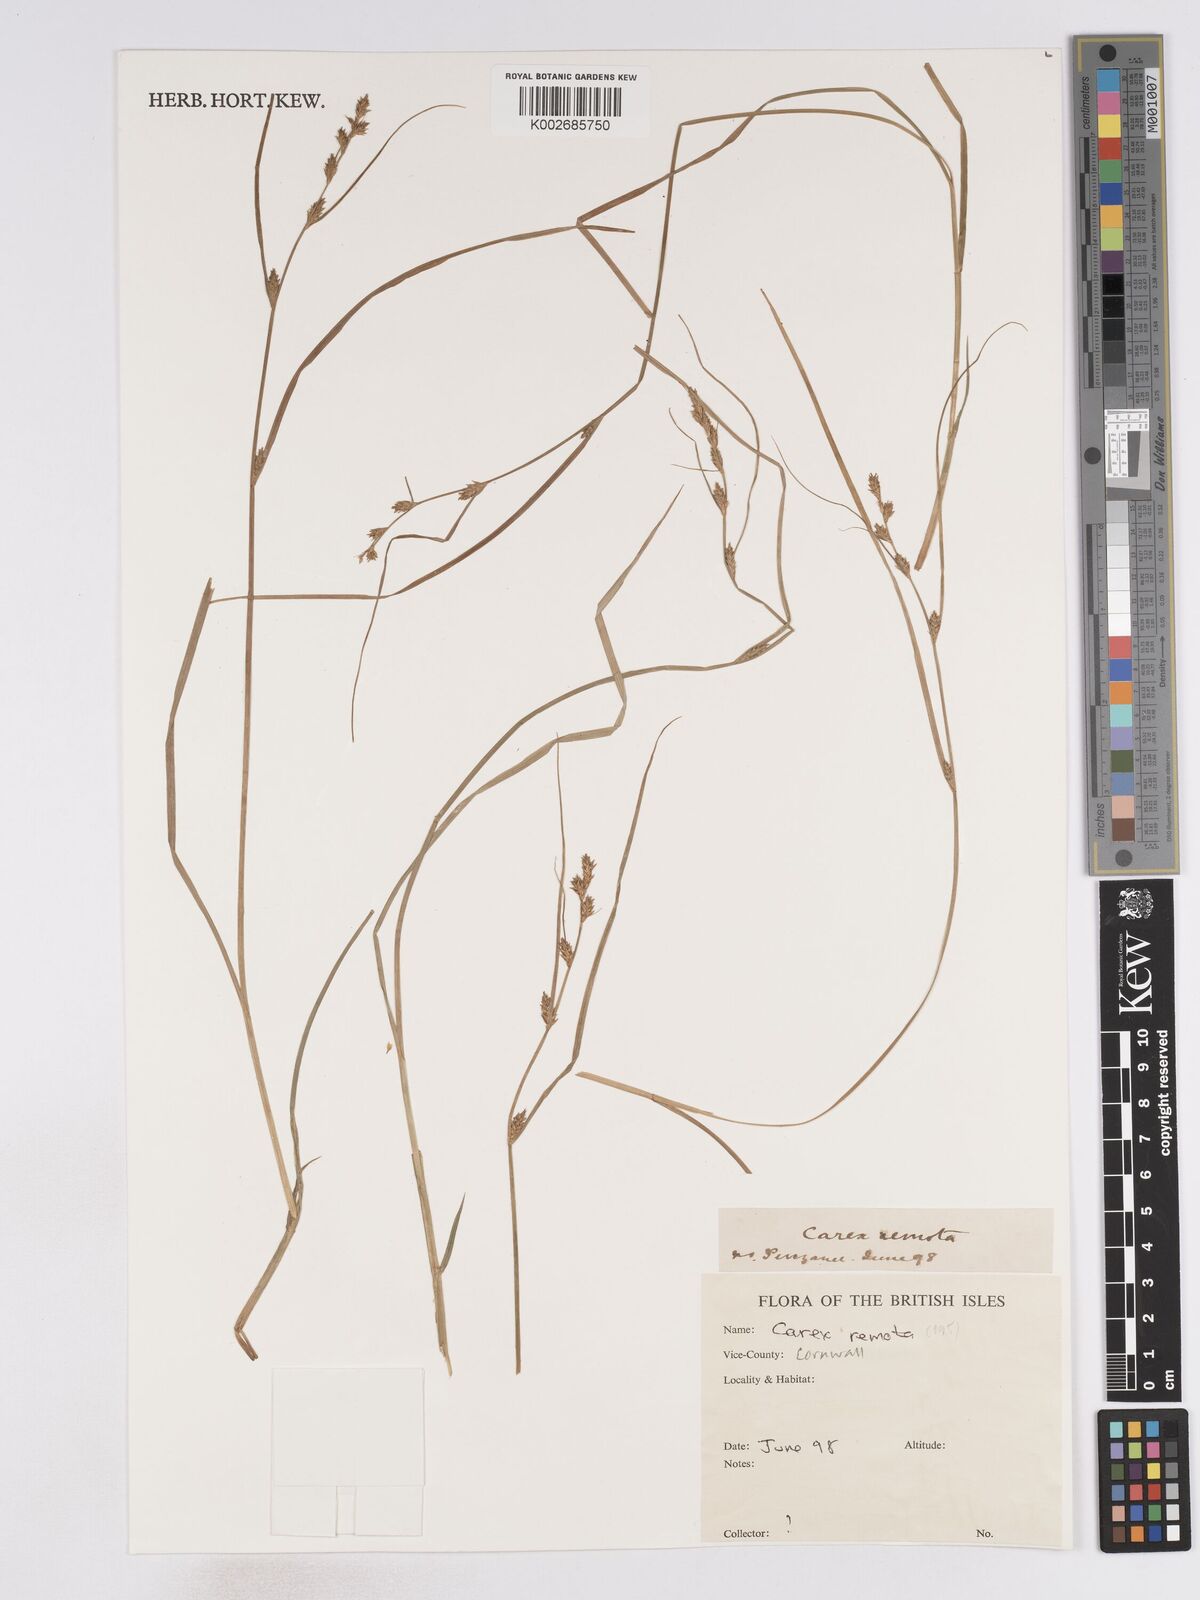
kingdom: Plantae
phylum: Tracheophyta
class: Liliopsida
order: Poales
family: Cyperaceae
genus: Carex
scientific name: Carex remota
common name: Remote sedge
